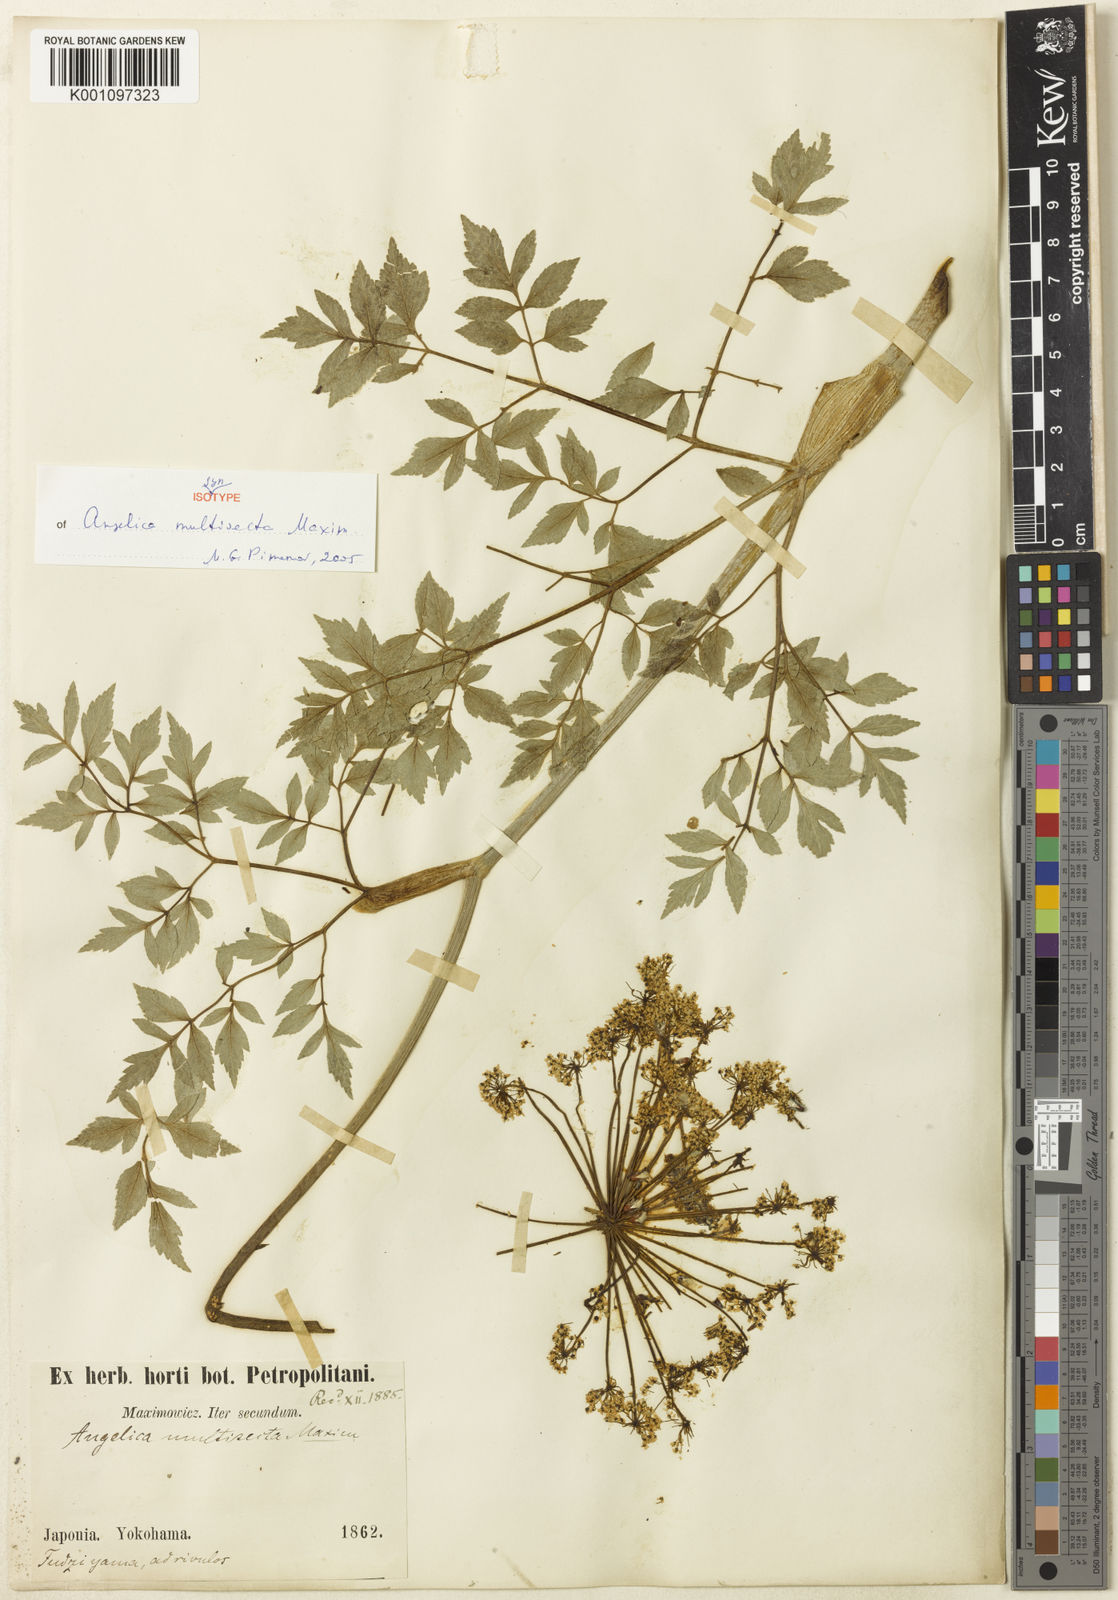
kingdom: Plantae
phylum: Tracheophyta
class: Magnoliopsida
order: Apiales
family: Apiaceae
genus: Angelica
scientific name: Angelica multisecta
